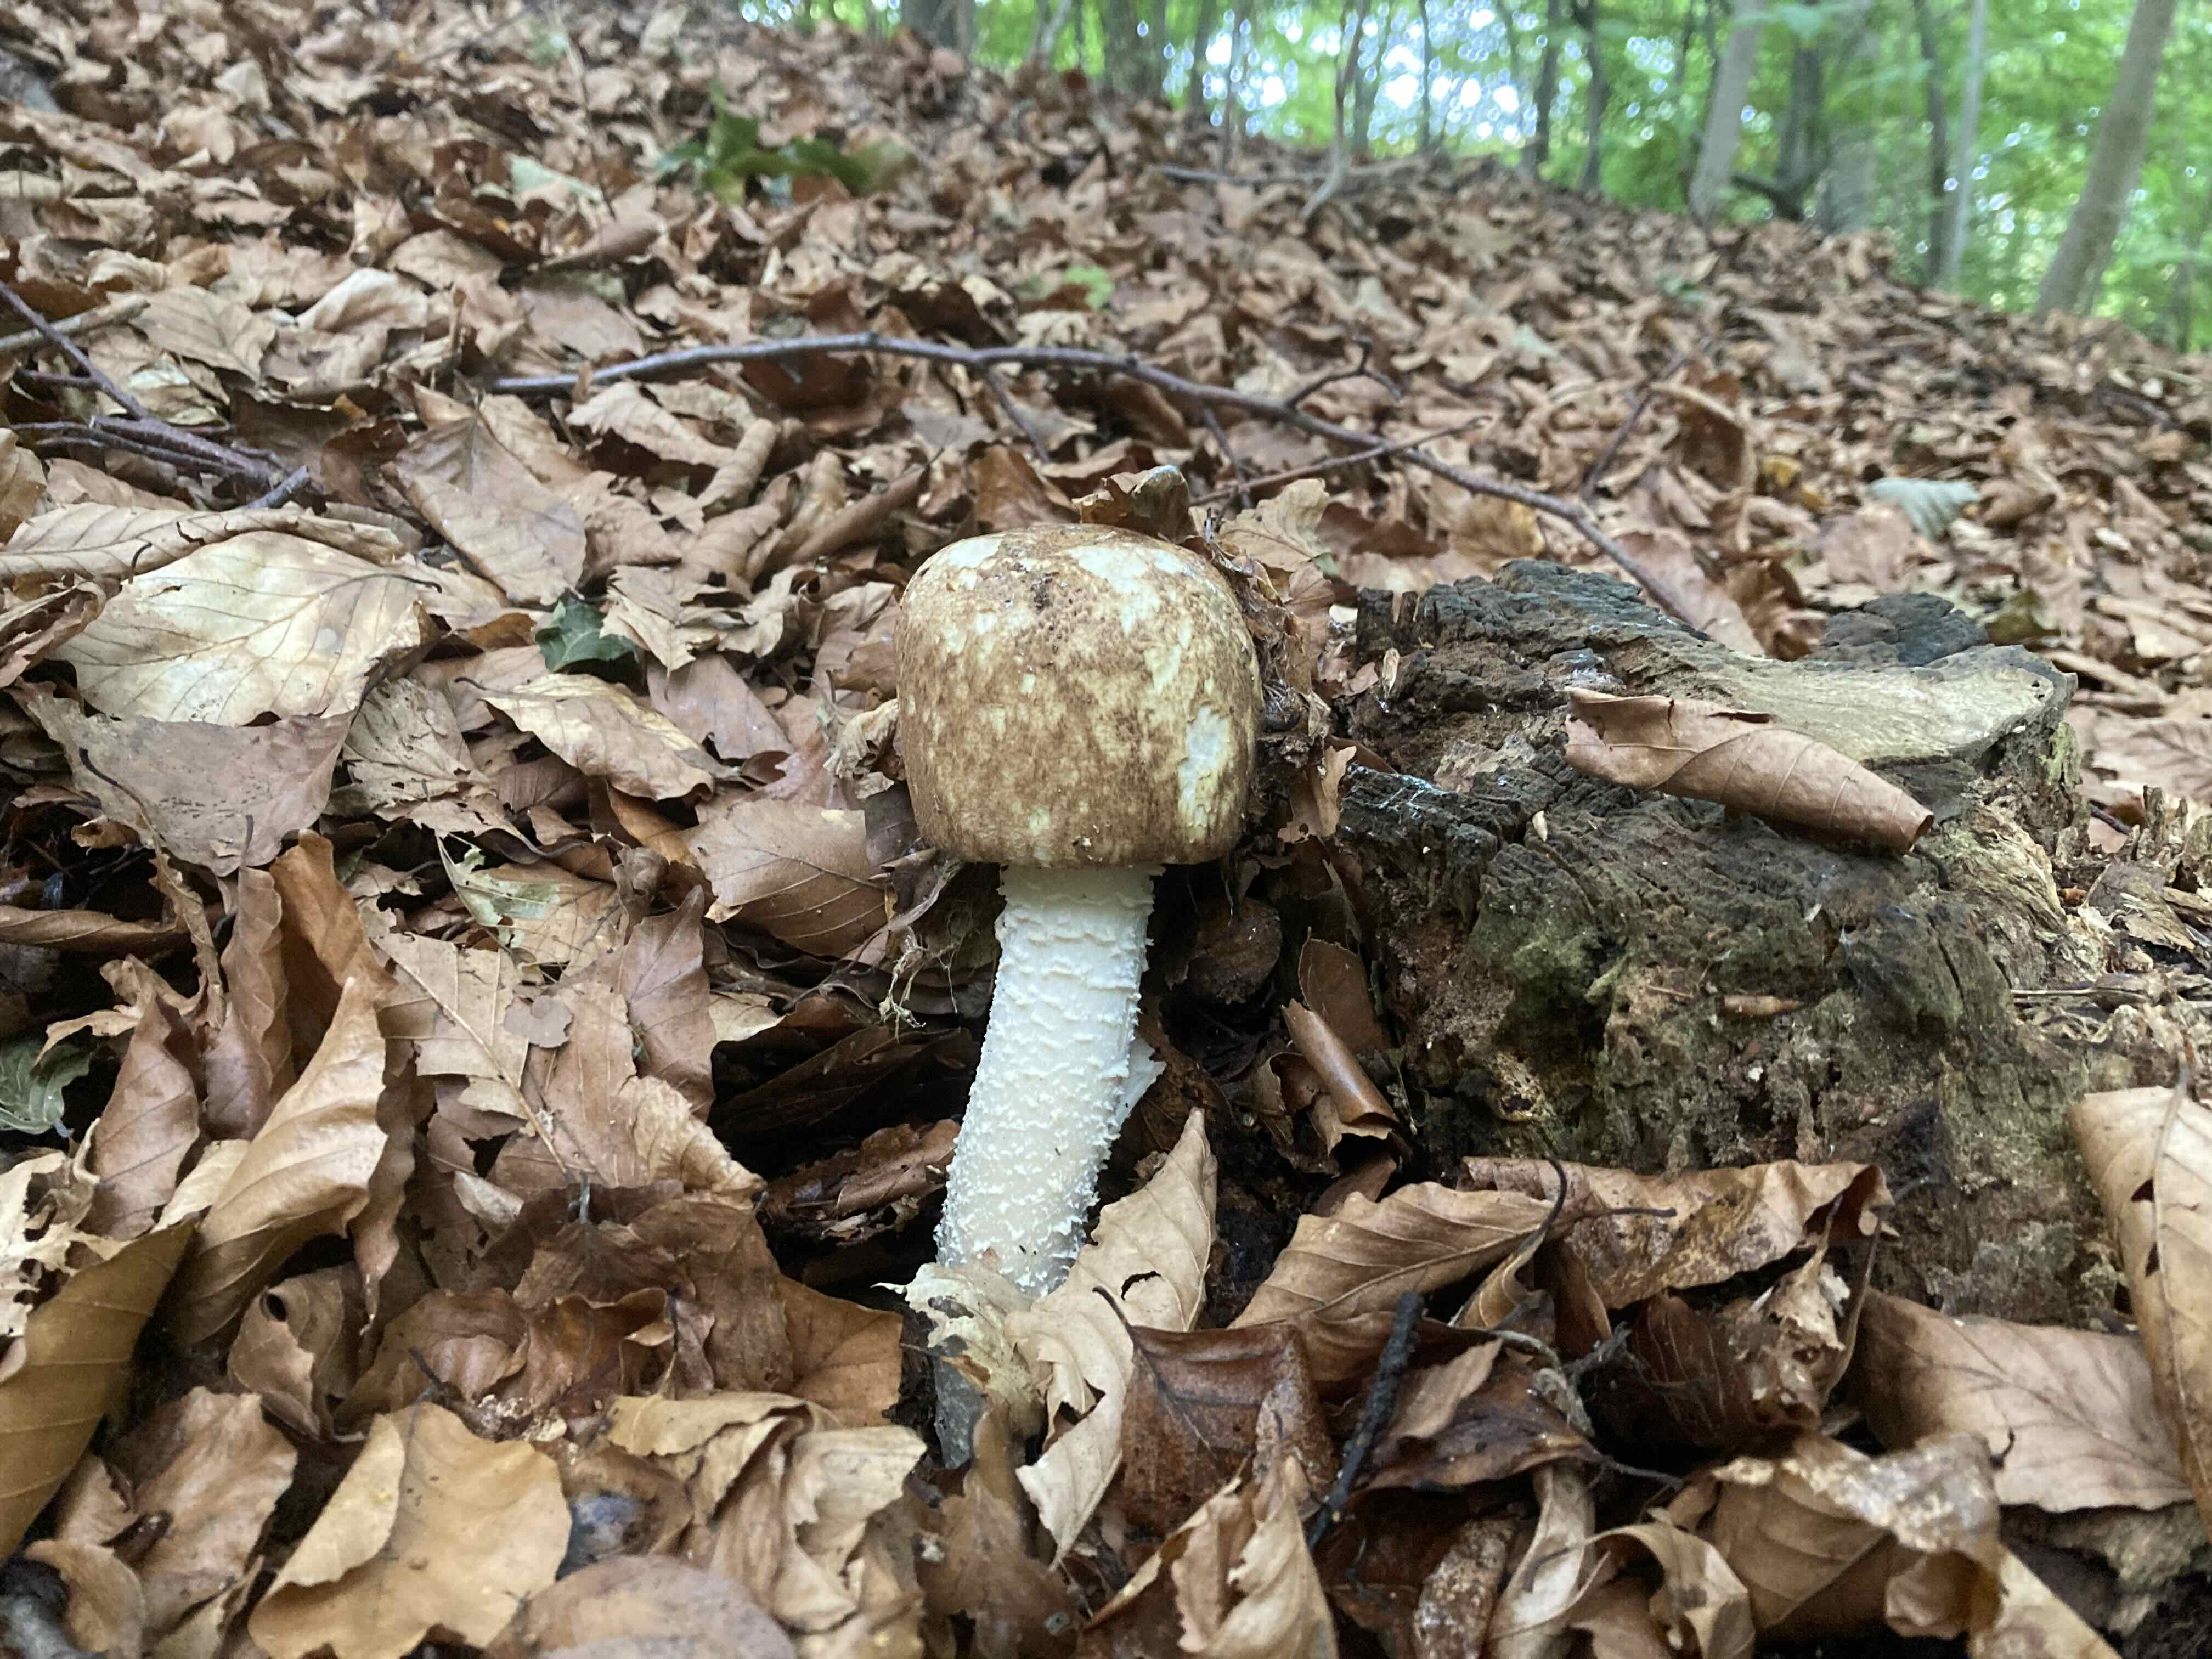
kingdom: Fungi
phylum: Basidiomycota
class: Agaricomycetes
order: Agaricales
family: Agaricaceae
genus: Agaricus
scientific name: Agaricus augustus
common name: prægtig champignon
